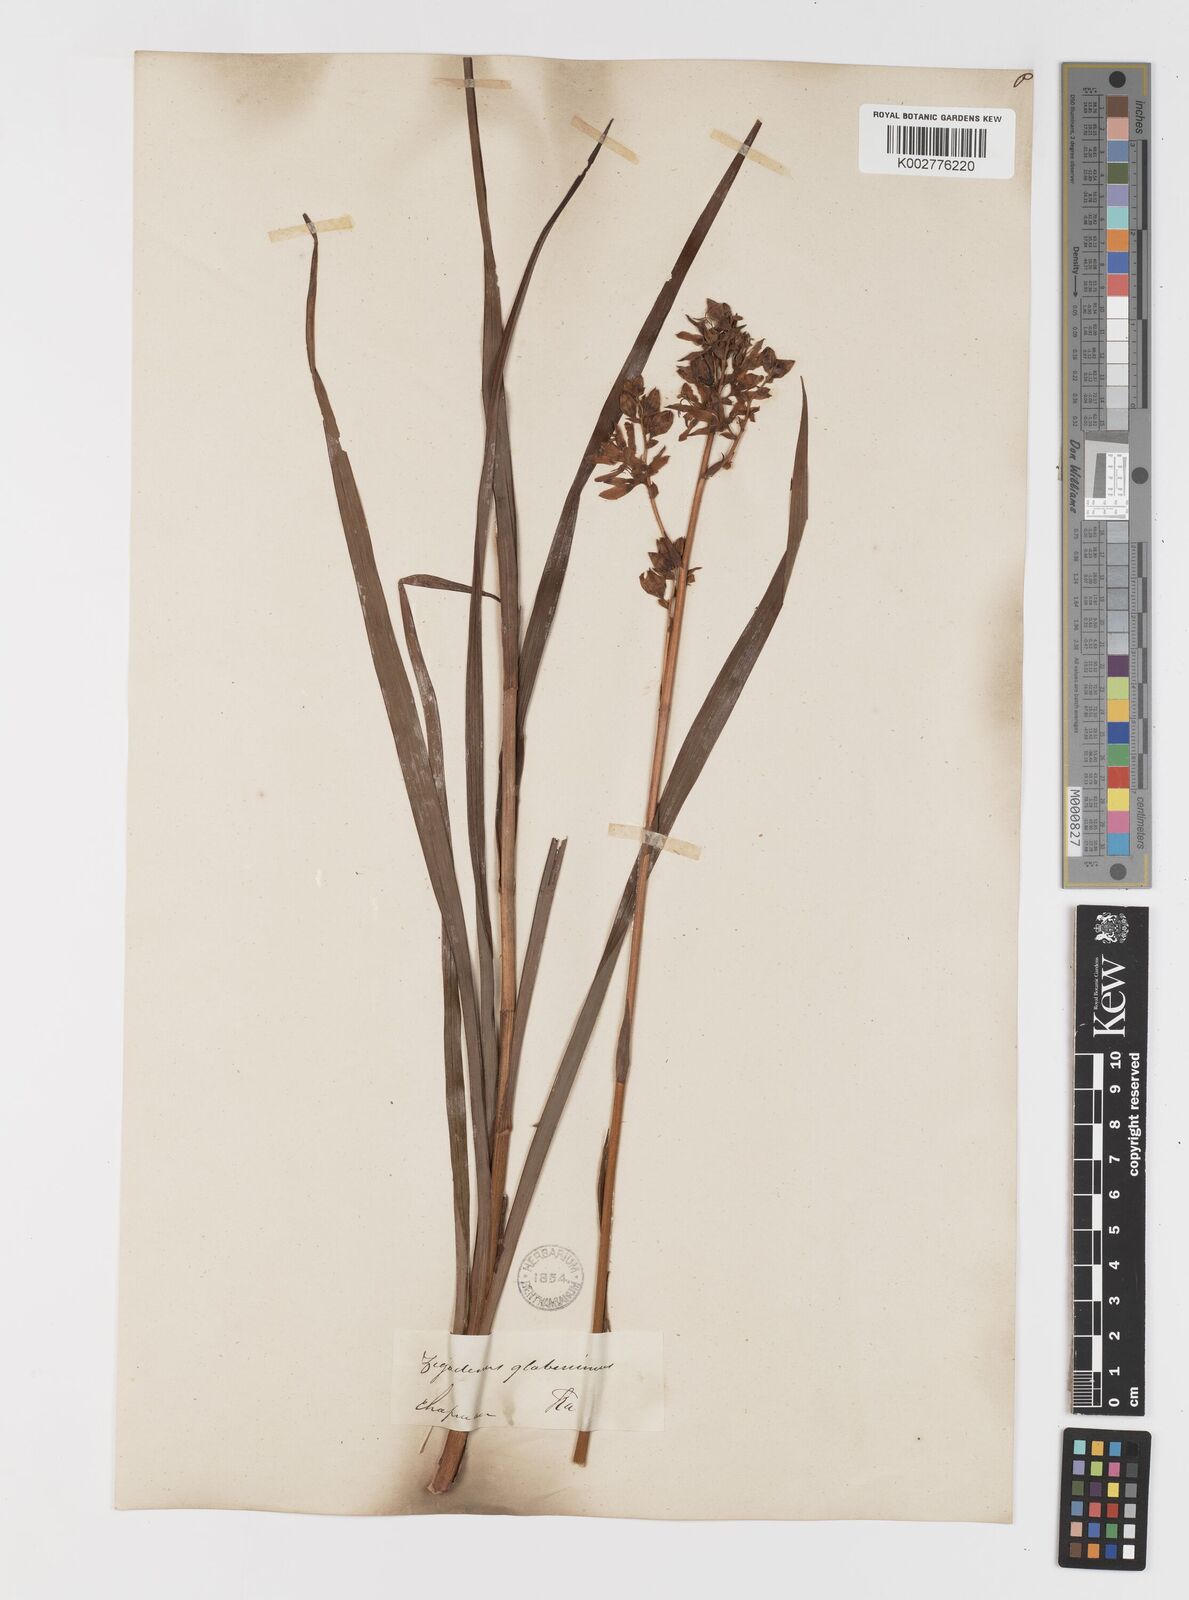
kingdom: Plantae
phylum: Tracheophyta
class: Liliopsida
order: Liliales
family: Melanthiaceae
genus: Zigadenus
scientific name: Zigadenus glaberrimus
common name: Sandbog death camas
